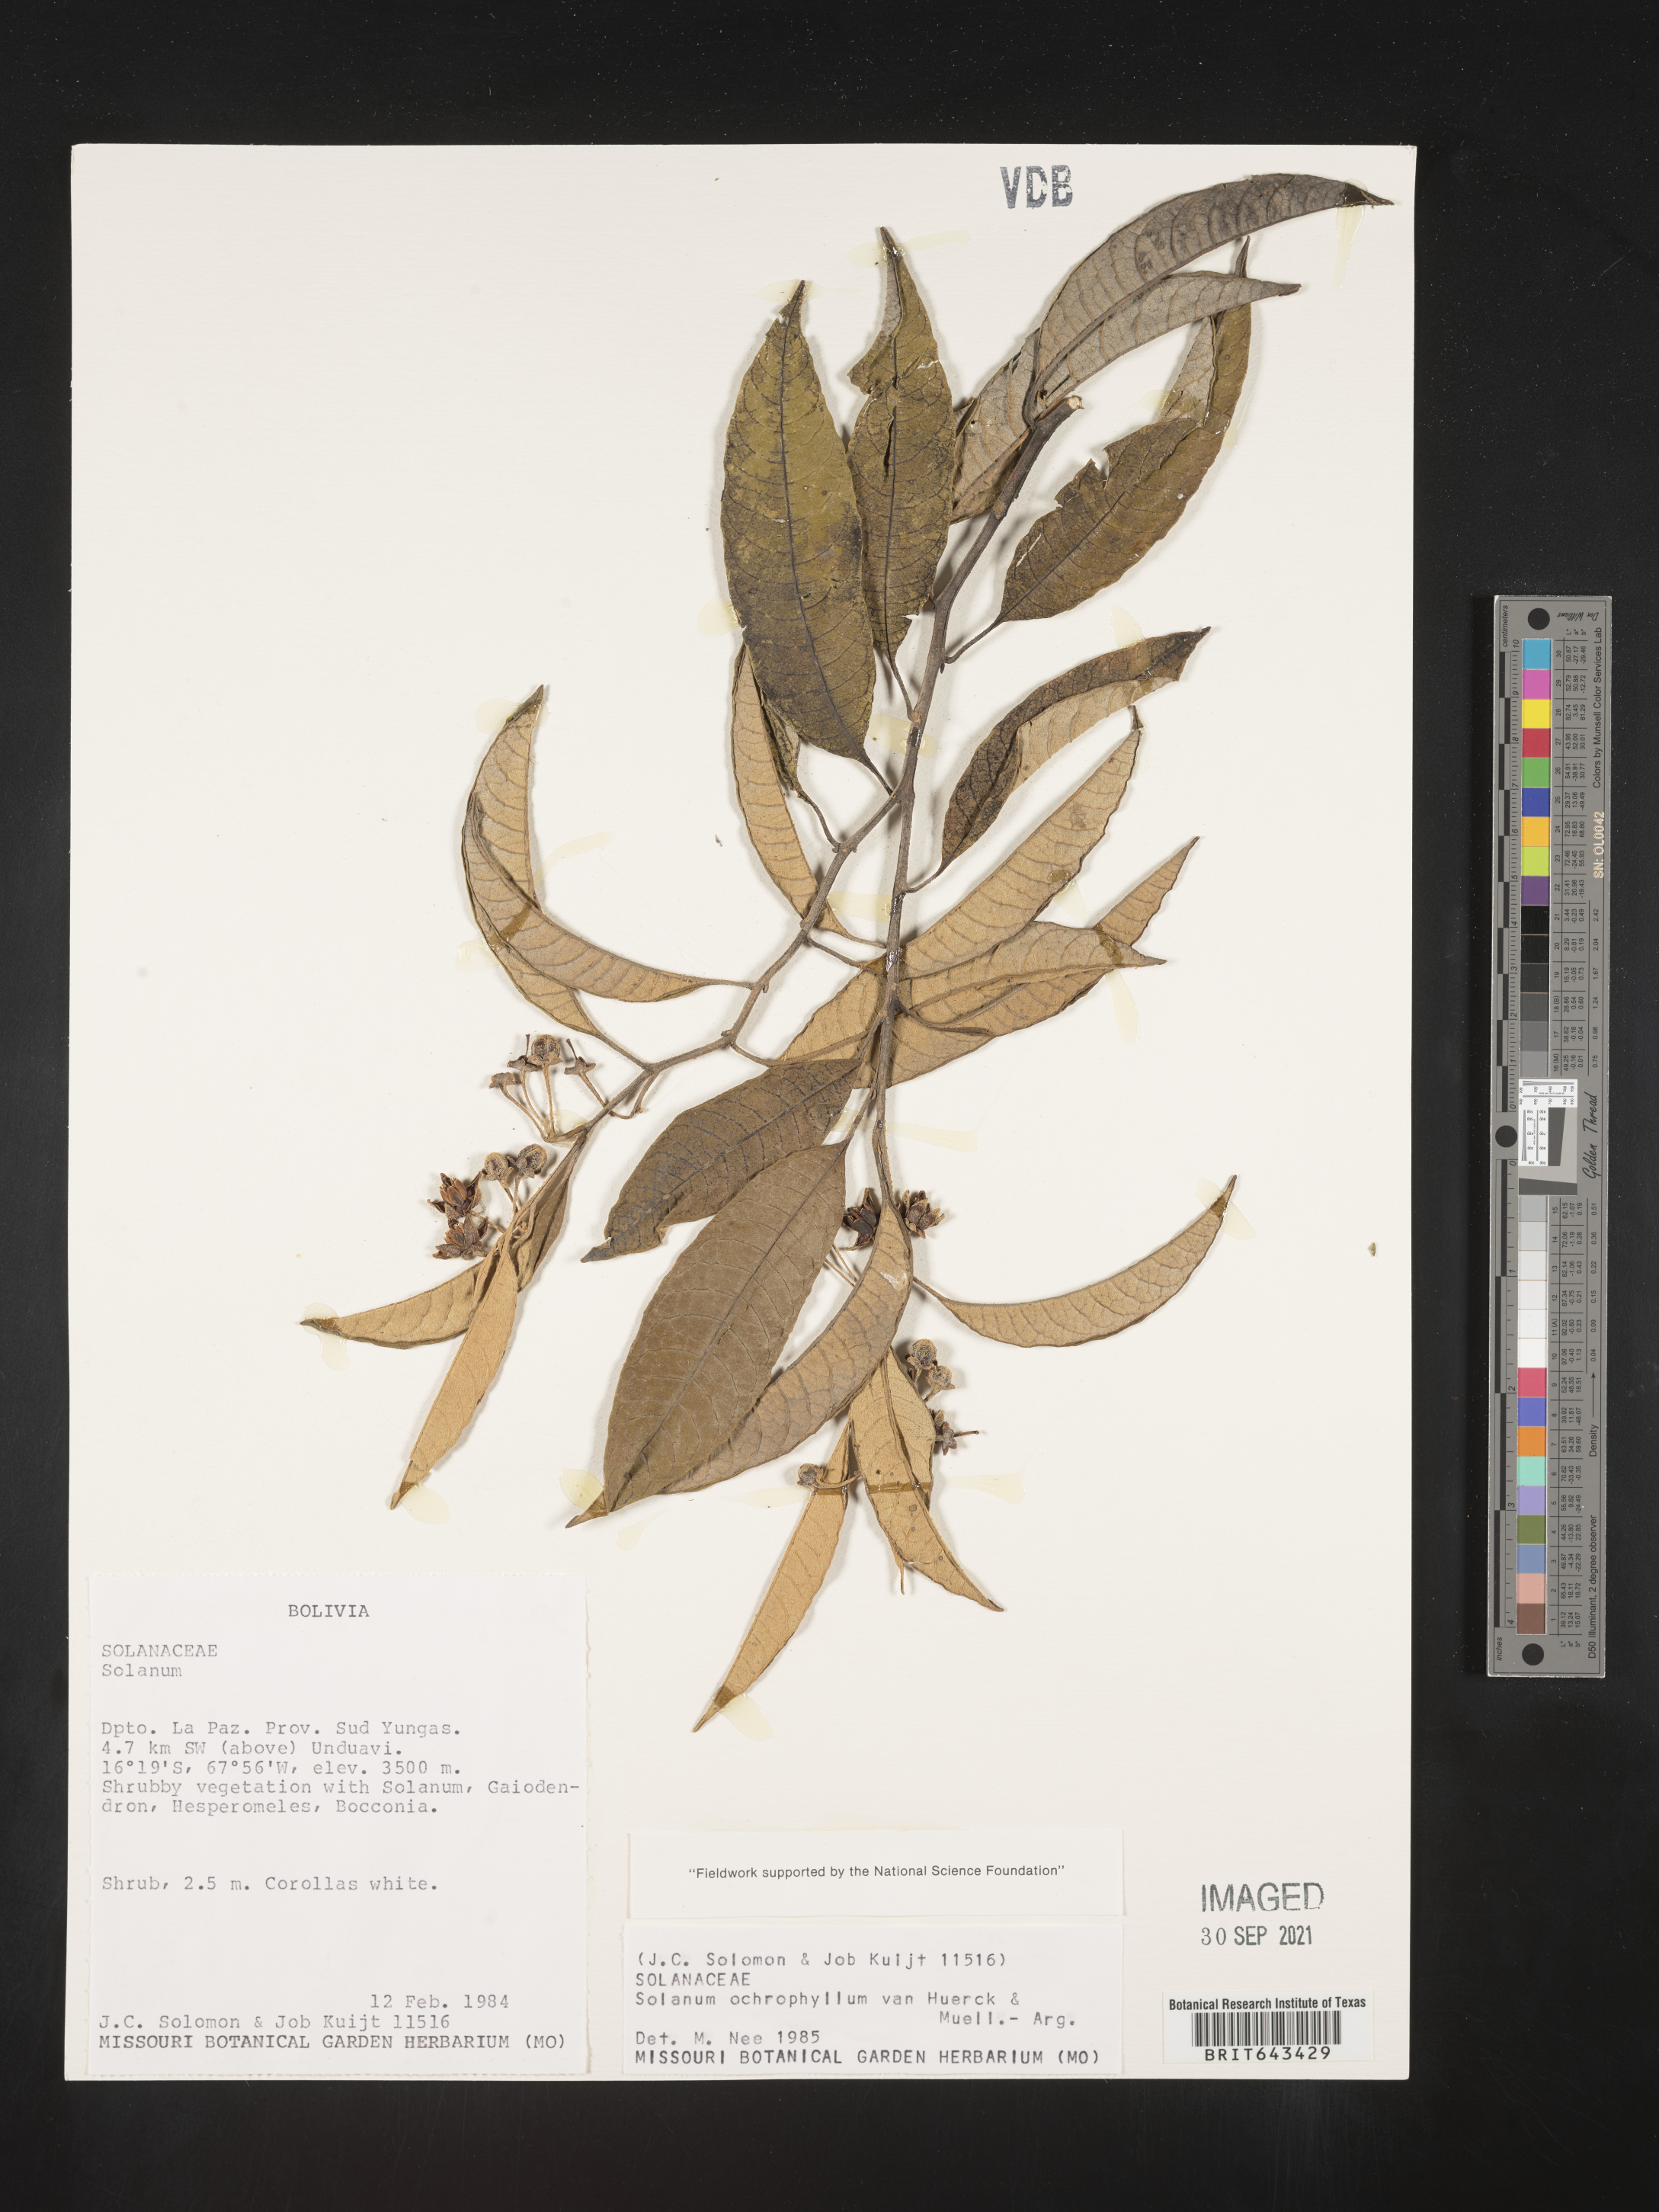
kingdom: Plantae
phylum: Tracheophyta
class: Magnoliopsida
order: Solanales
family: Solanaceae
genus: Solanum
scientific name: Solanum
